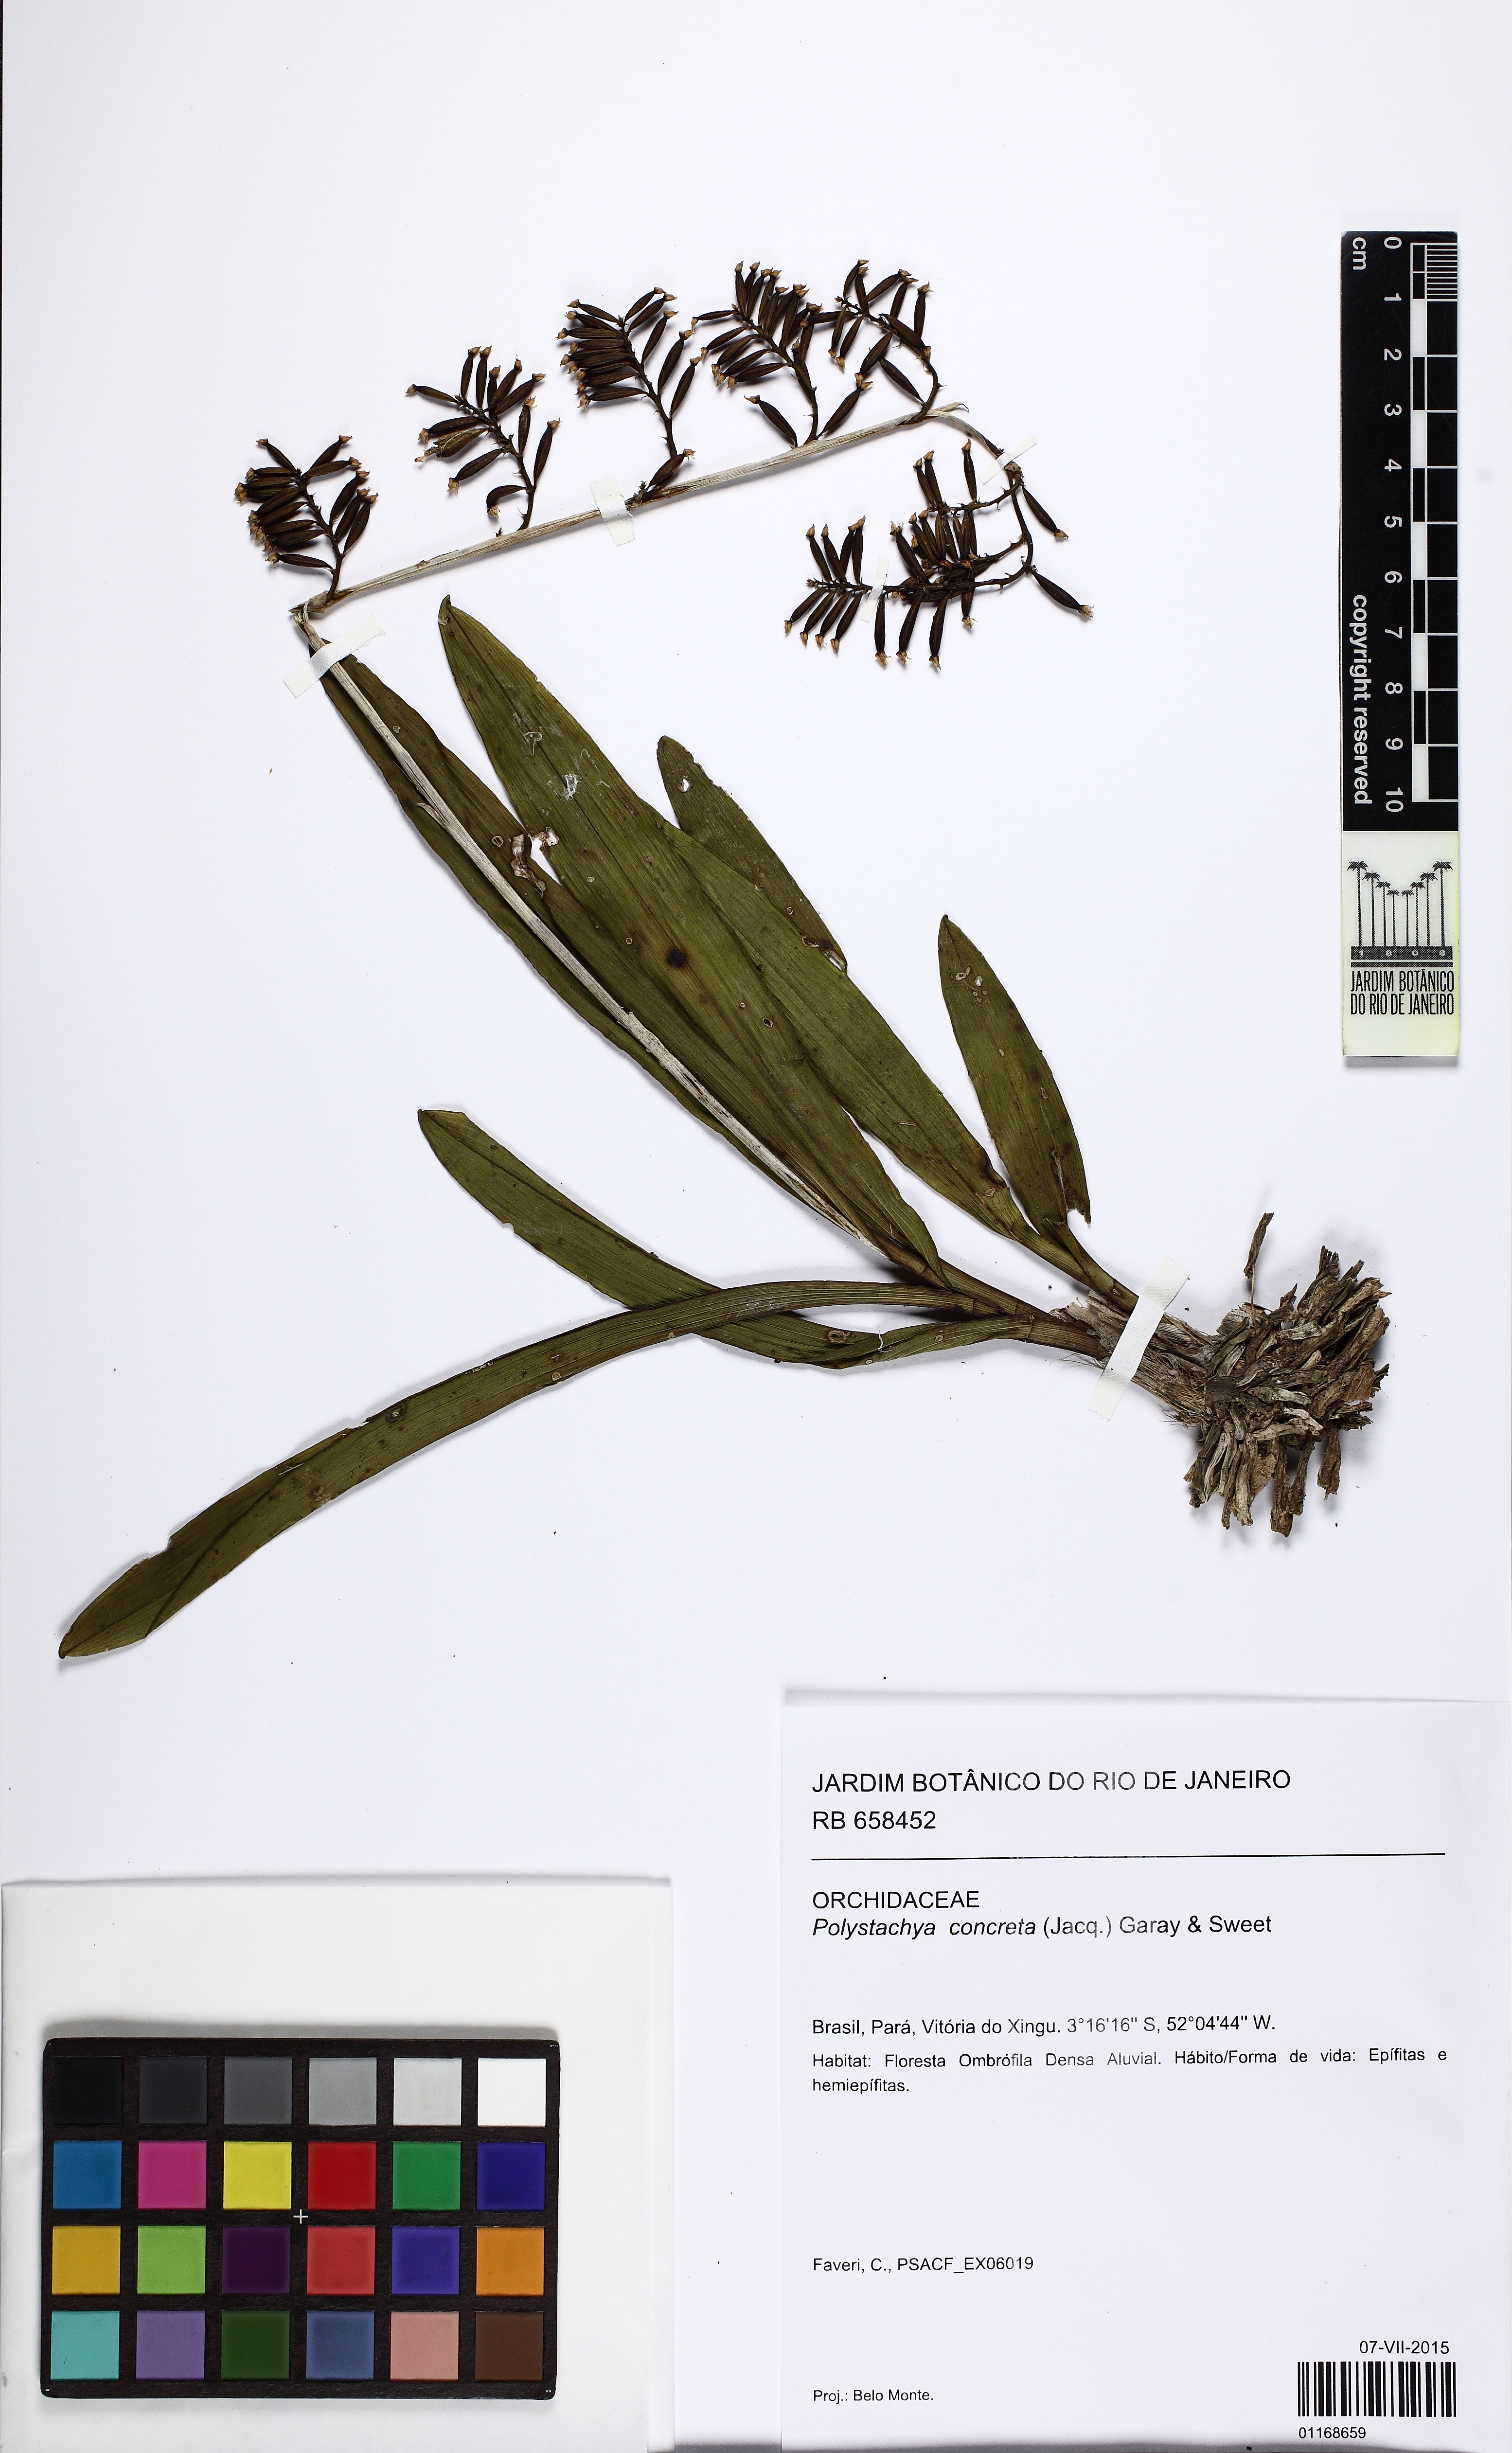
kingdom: Plantae
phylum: Tracheophyta
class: Liliopsida
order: Asparagales
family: Orchidaceae
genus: Polystachya
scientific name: Polystachya concreta
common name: Greater yellowspike orchid
